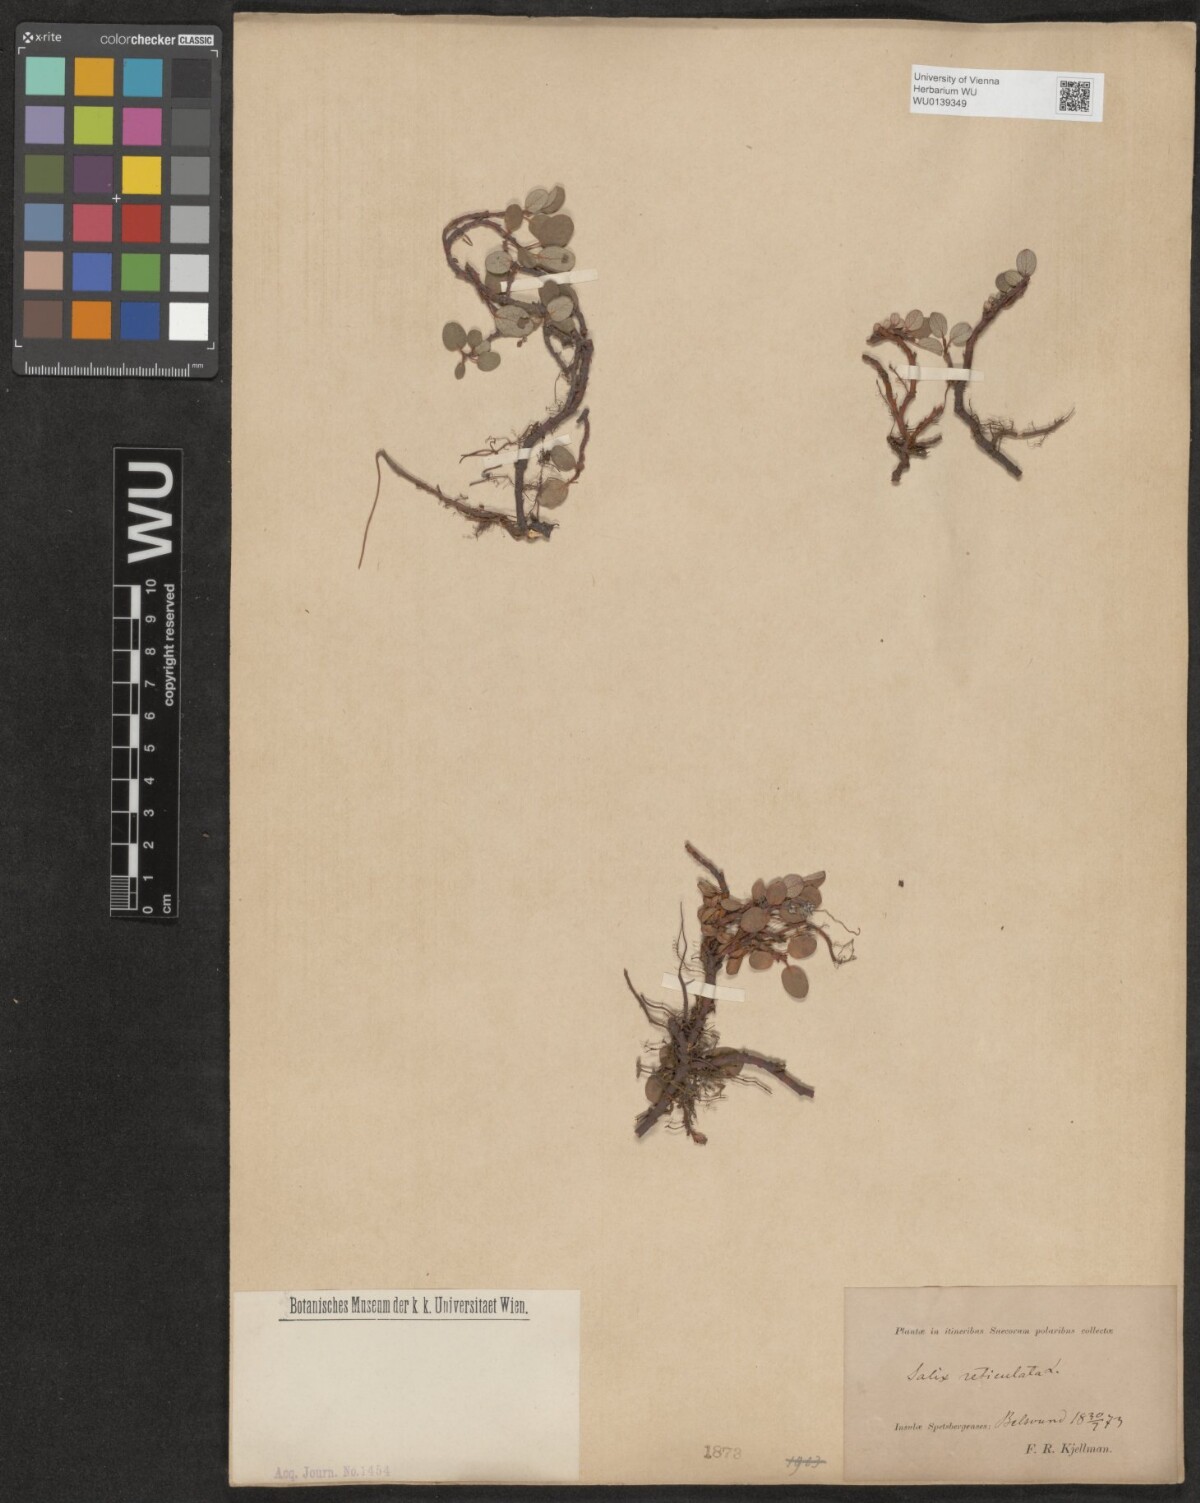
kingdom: Plantae
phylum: Tracheophyta
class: Magnoliopsida
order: Malpighiales
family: Salicaceae
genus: Salix
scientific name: Salix reticulata
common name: Net-leaved willow
